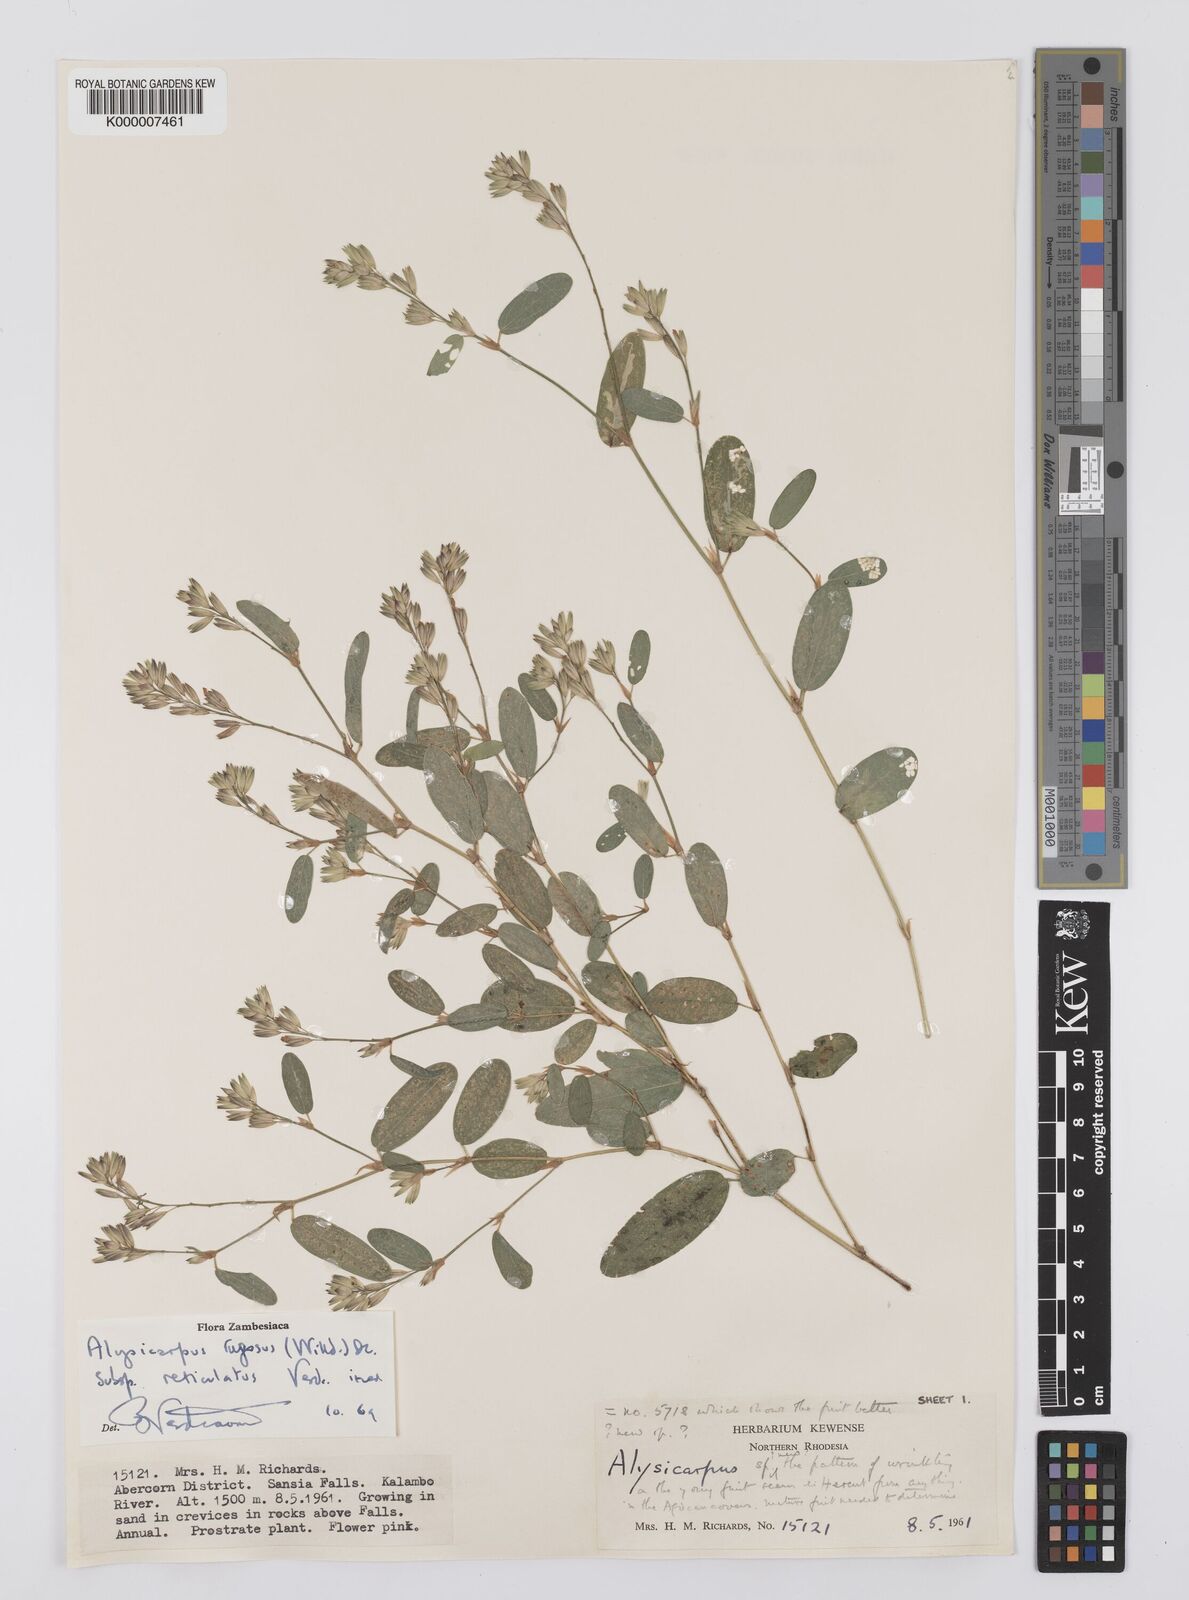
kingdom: Plantae
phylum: Tracheophyta
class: Magnoliopsida
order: Fabales
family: Fabaceae
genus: Alysicarpus
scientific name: Alysicarpus rugosus
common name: Red moneywort
